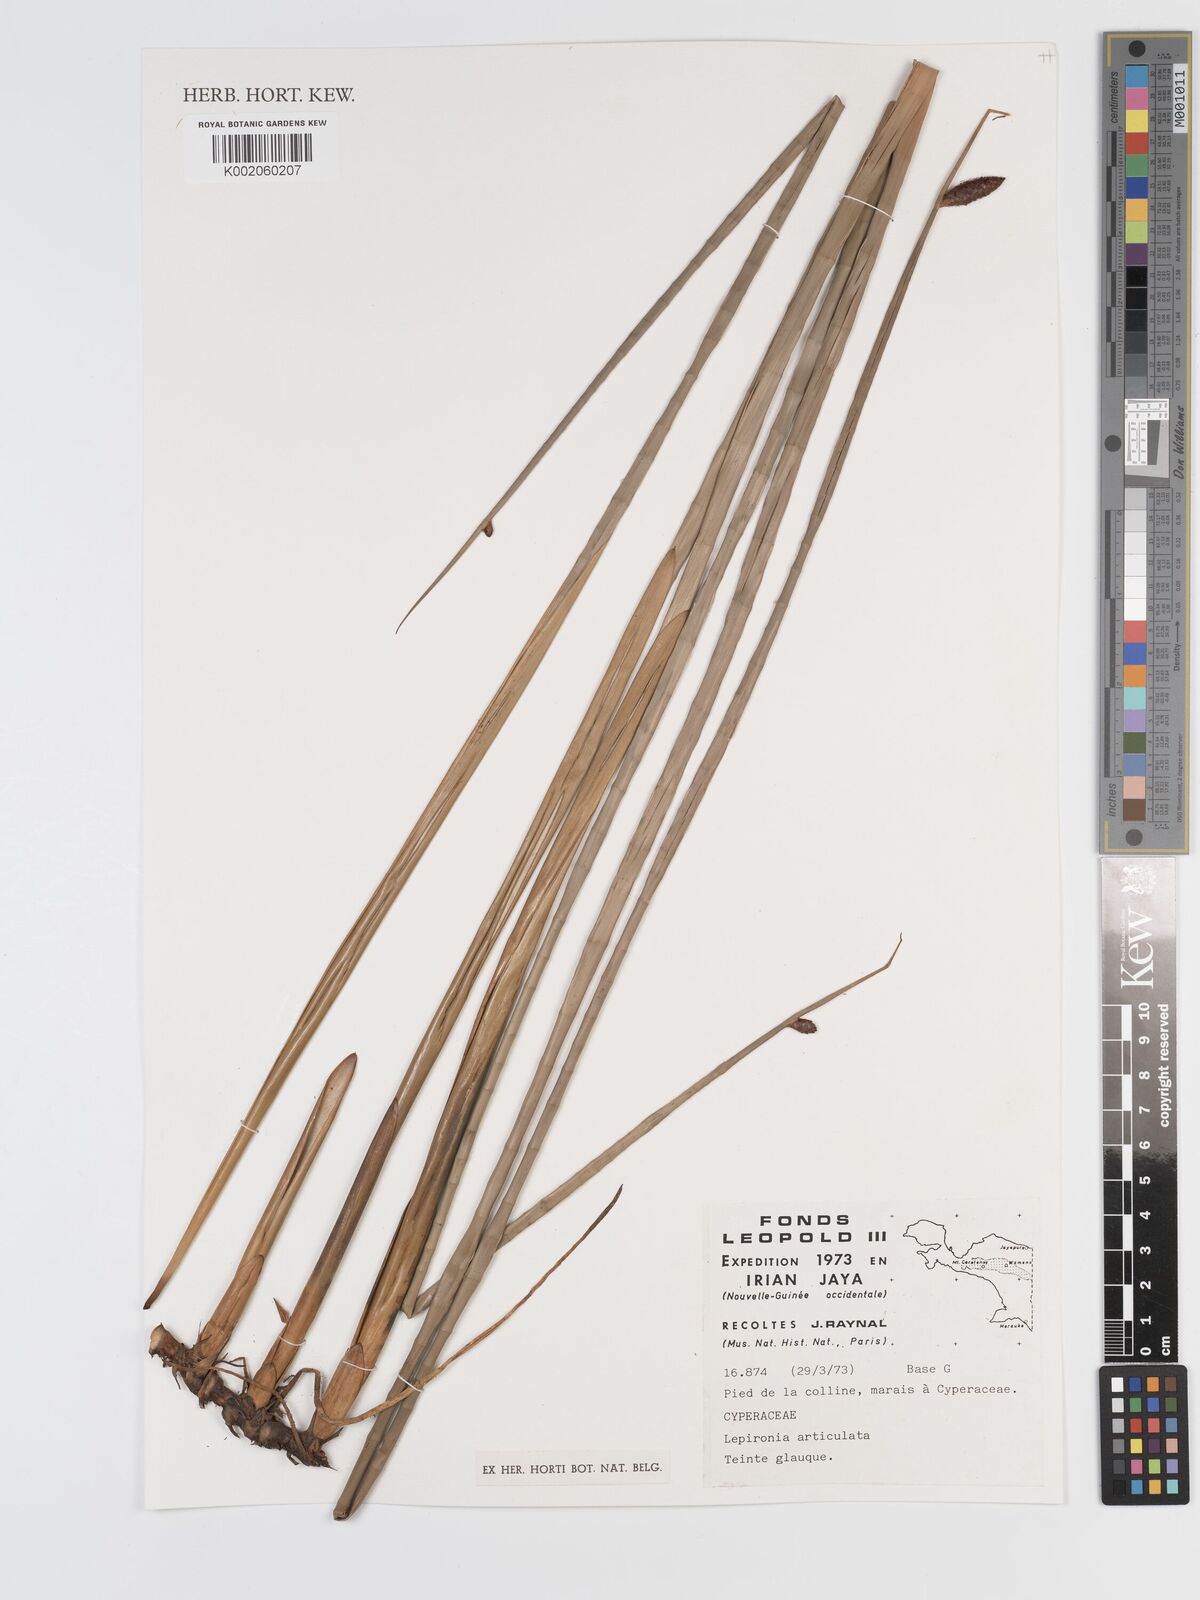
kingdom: Plantae
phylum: Tracheophyta
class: Liliopsida
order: Poales
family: Cyperaceae
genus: Lepironia
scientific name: Lepironia articulata
